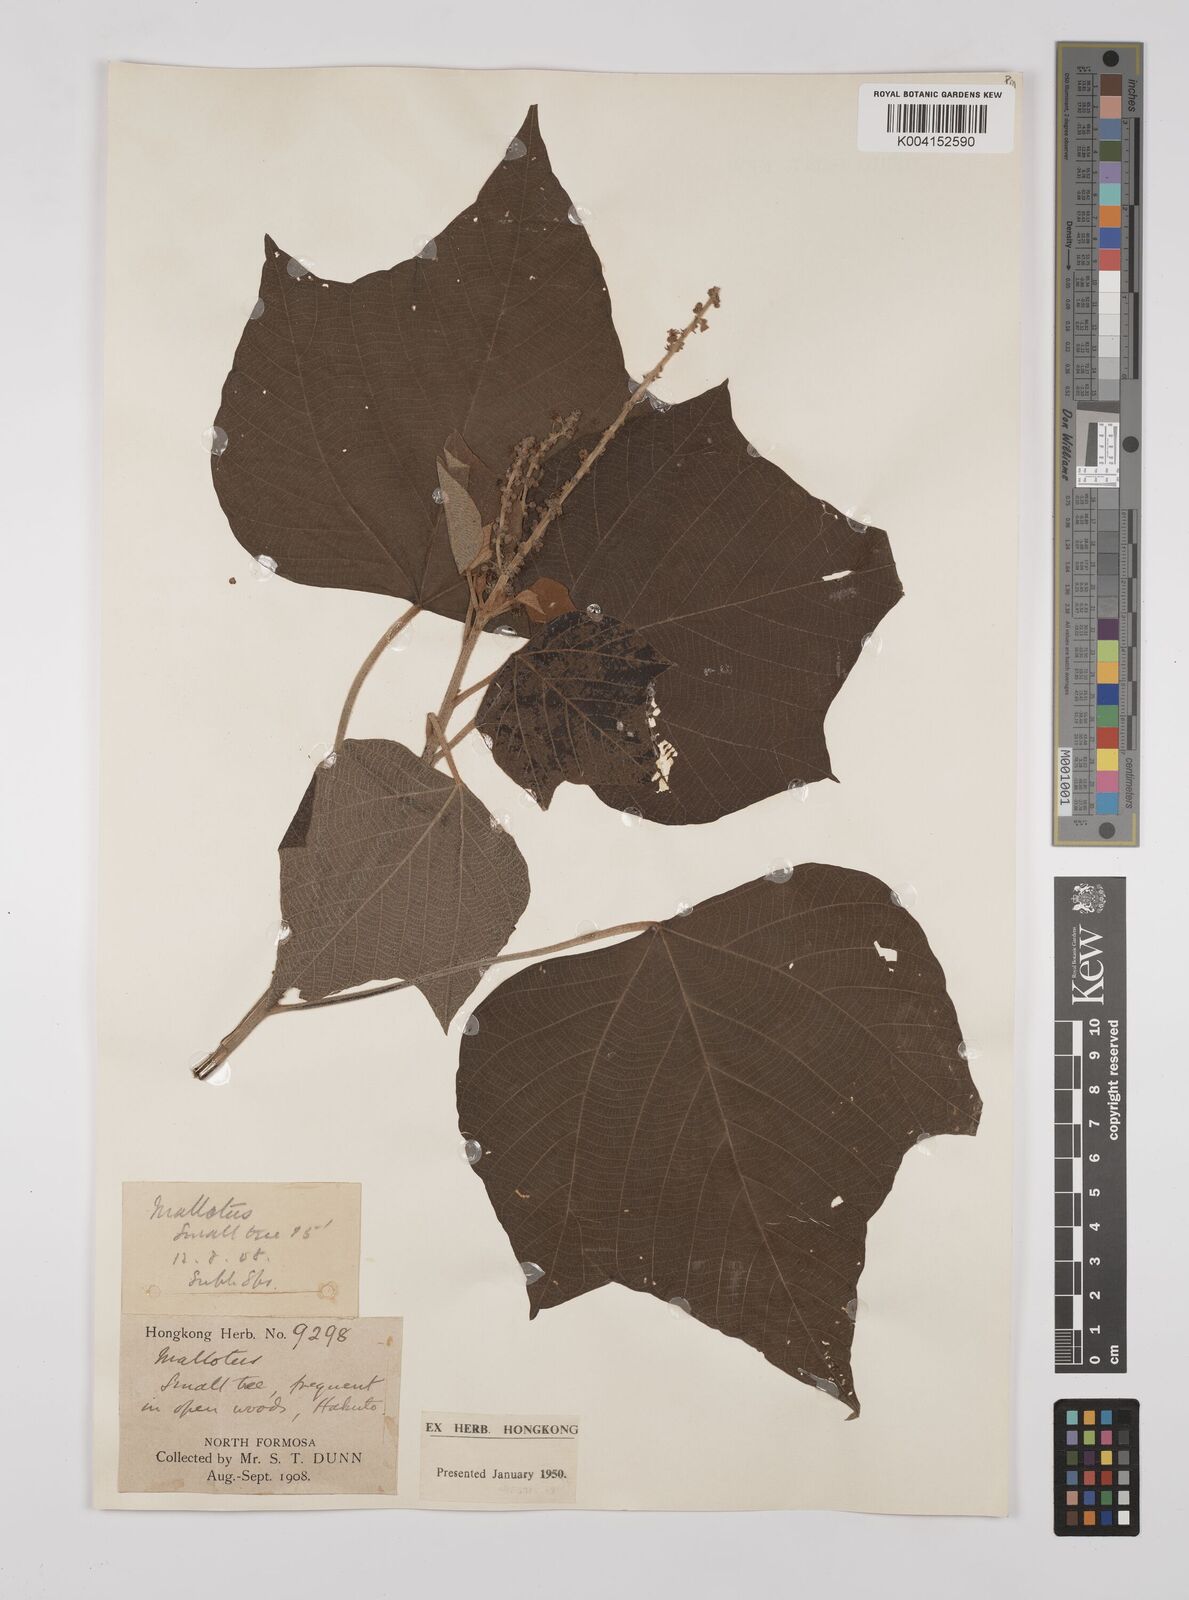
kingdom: Plantae
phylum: Tracheophyta
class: Magnoliopsida
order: Malpighiales
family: Euphorbiaceae
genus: Mallotus
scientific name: Mallotus japonicus
